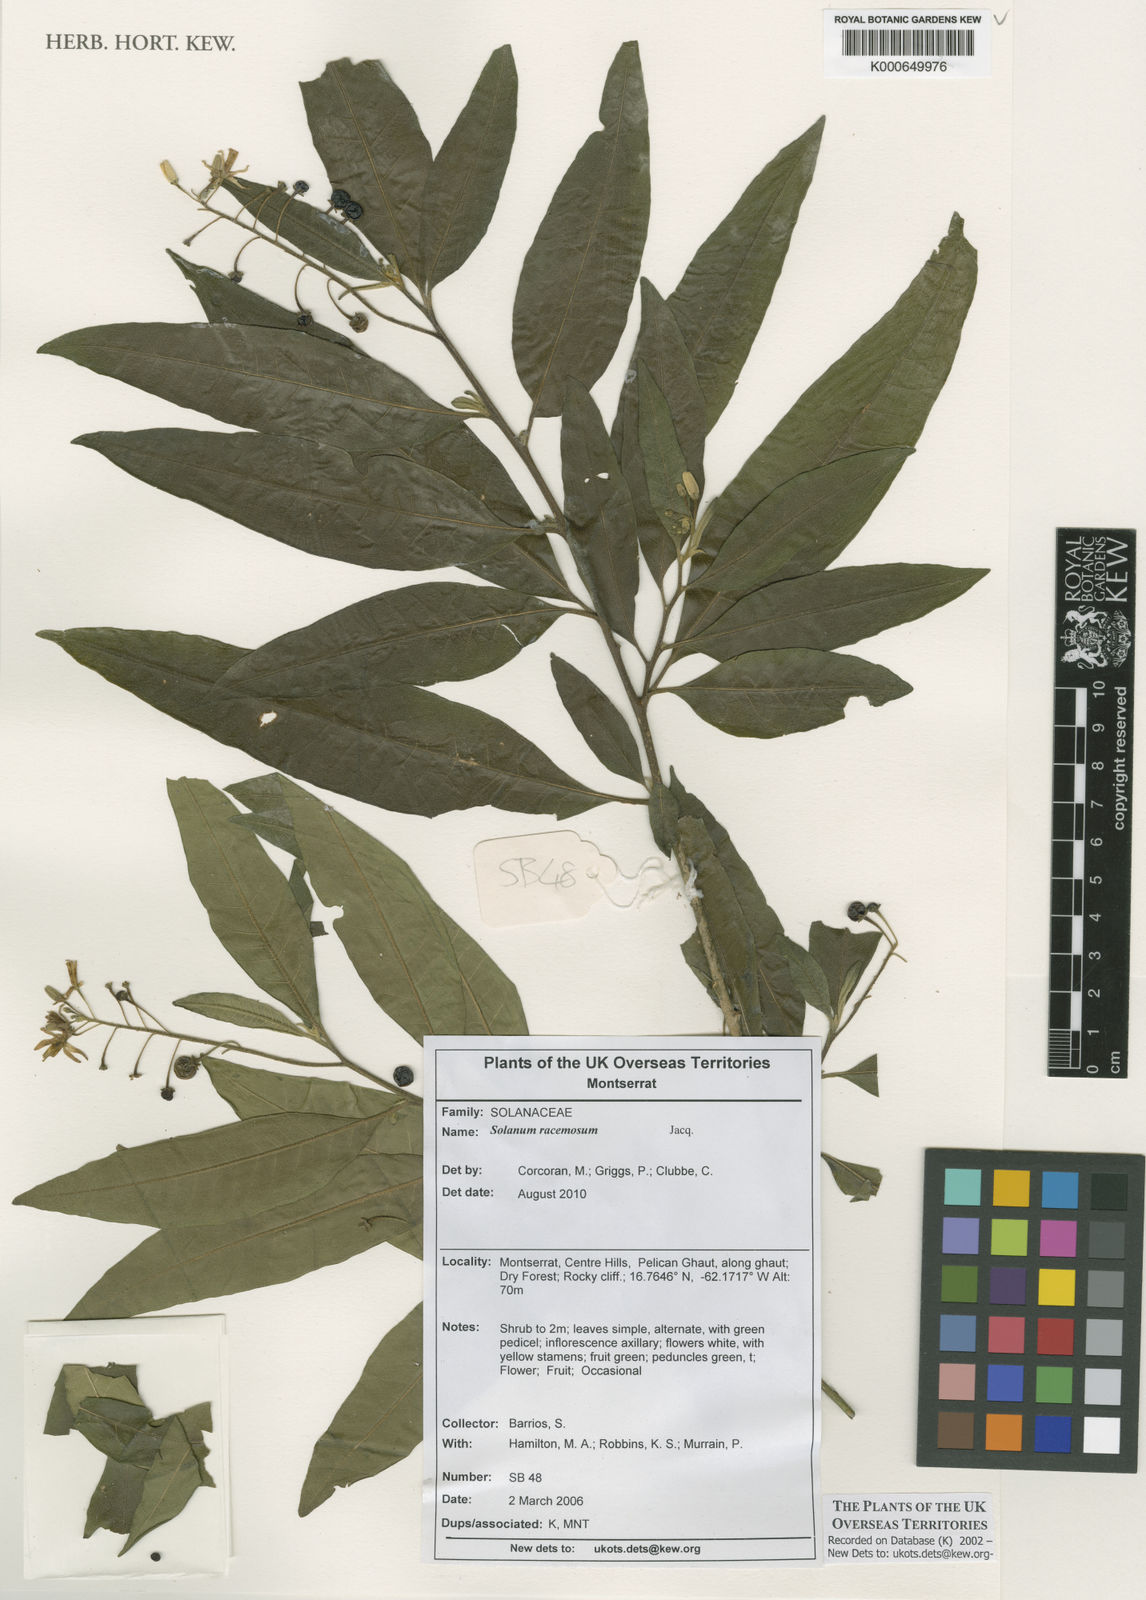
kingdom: Plantae
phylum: Tracheophyta
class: Magnoliopsida
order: Solanales
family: Solanaceae
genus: Solanum
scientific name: Solanum bahamense
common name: Canker-berry
